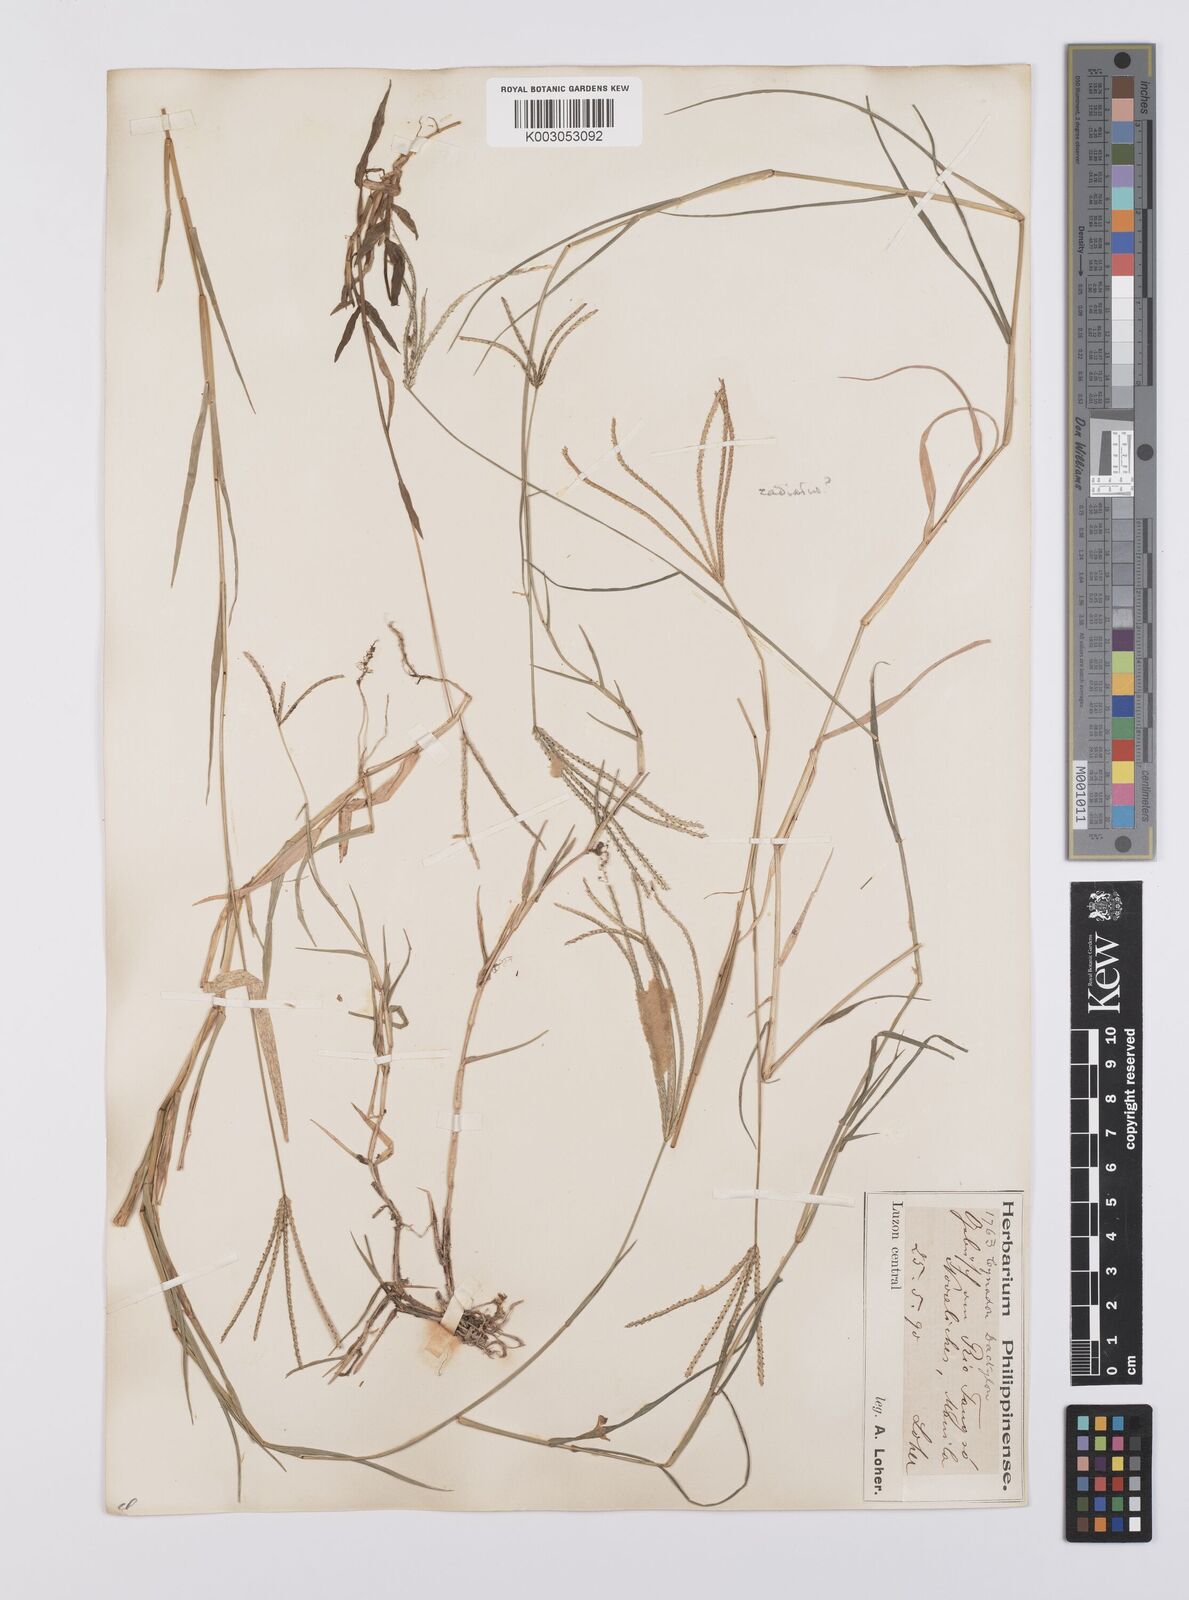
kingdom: Plantae
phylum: Tracheophyta
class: Liliopsida
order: Poales
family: Poaceae
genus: Cynodon
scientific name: Cynodon radiatus
